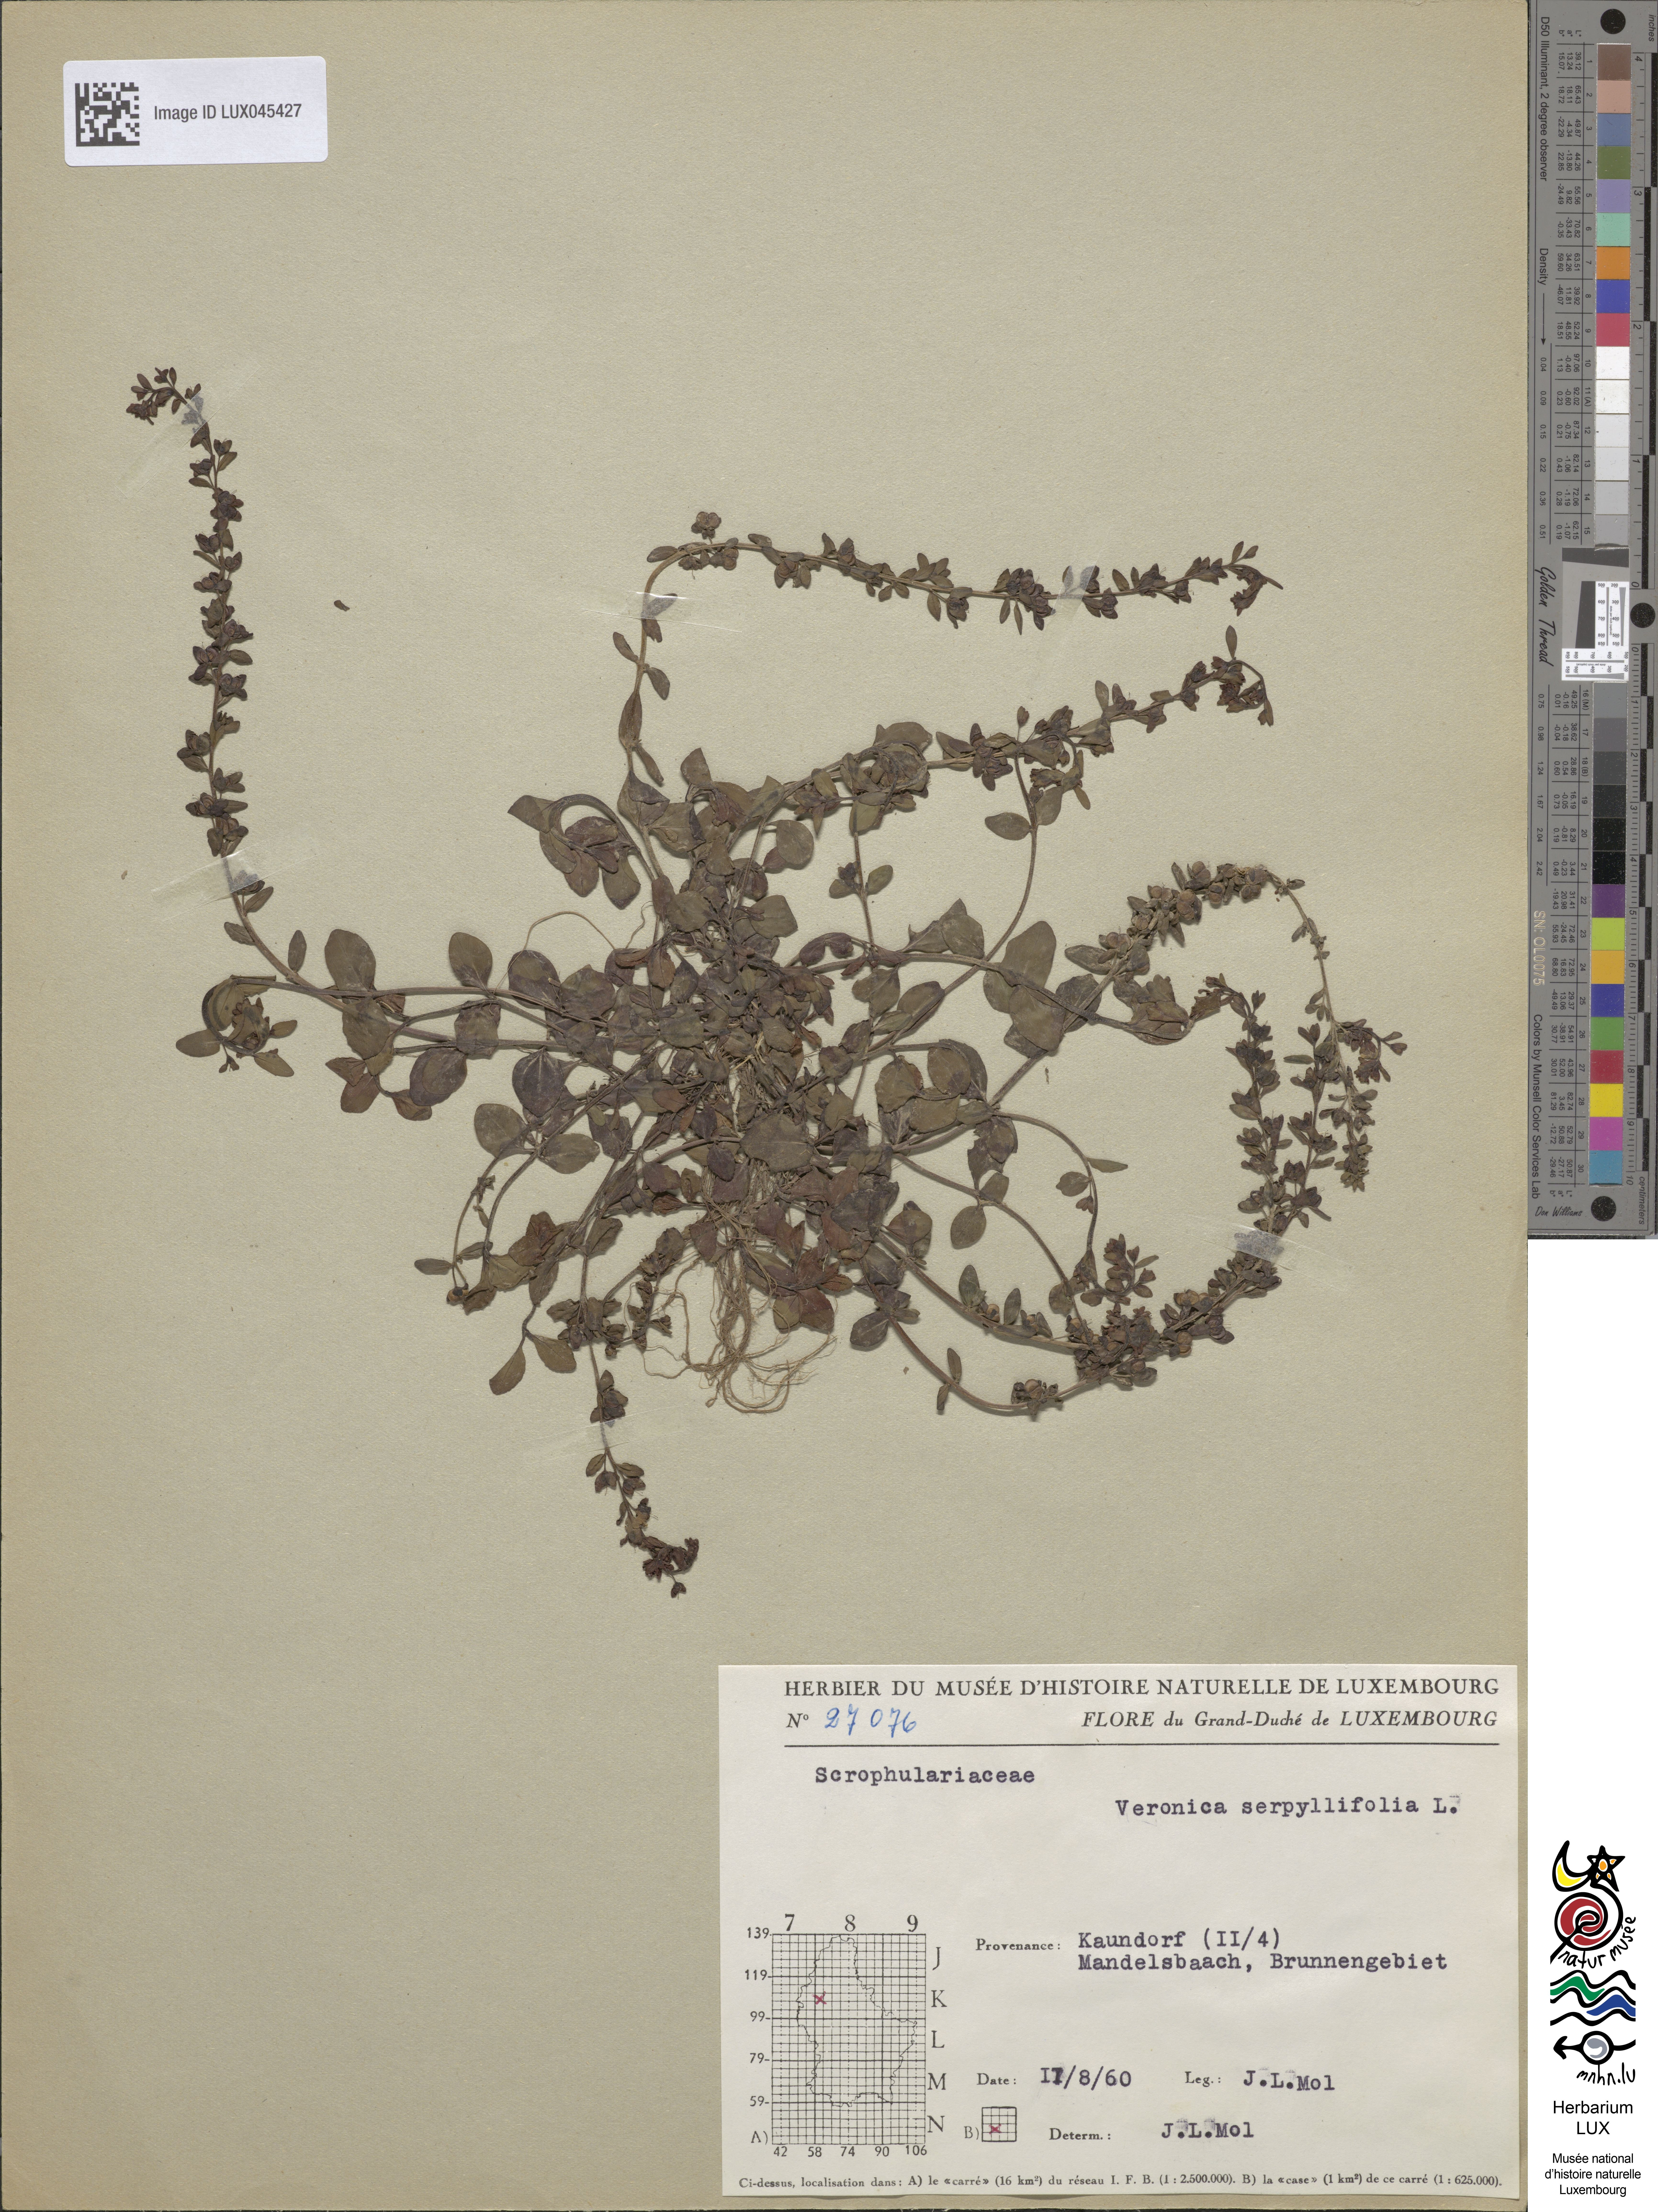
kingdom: Plantae
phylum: Tracheophyta
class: Magnoliopsida
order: Lamiales
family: Plantaginaceae
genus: Veronica
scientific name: Veronica serpyllifolia
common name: Thyme-leaved speedwell
